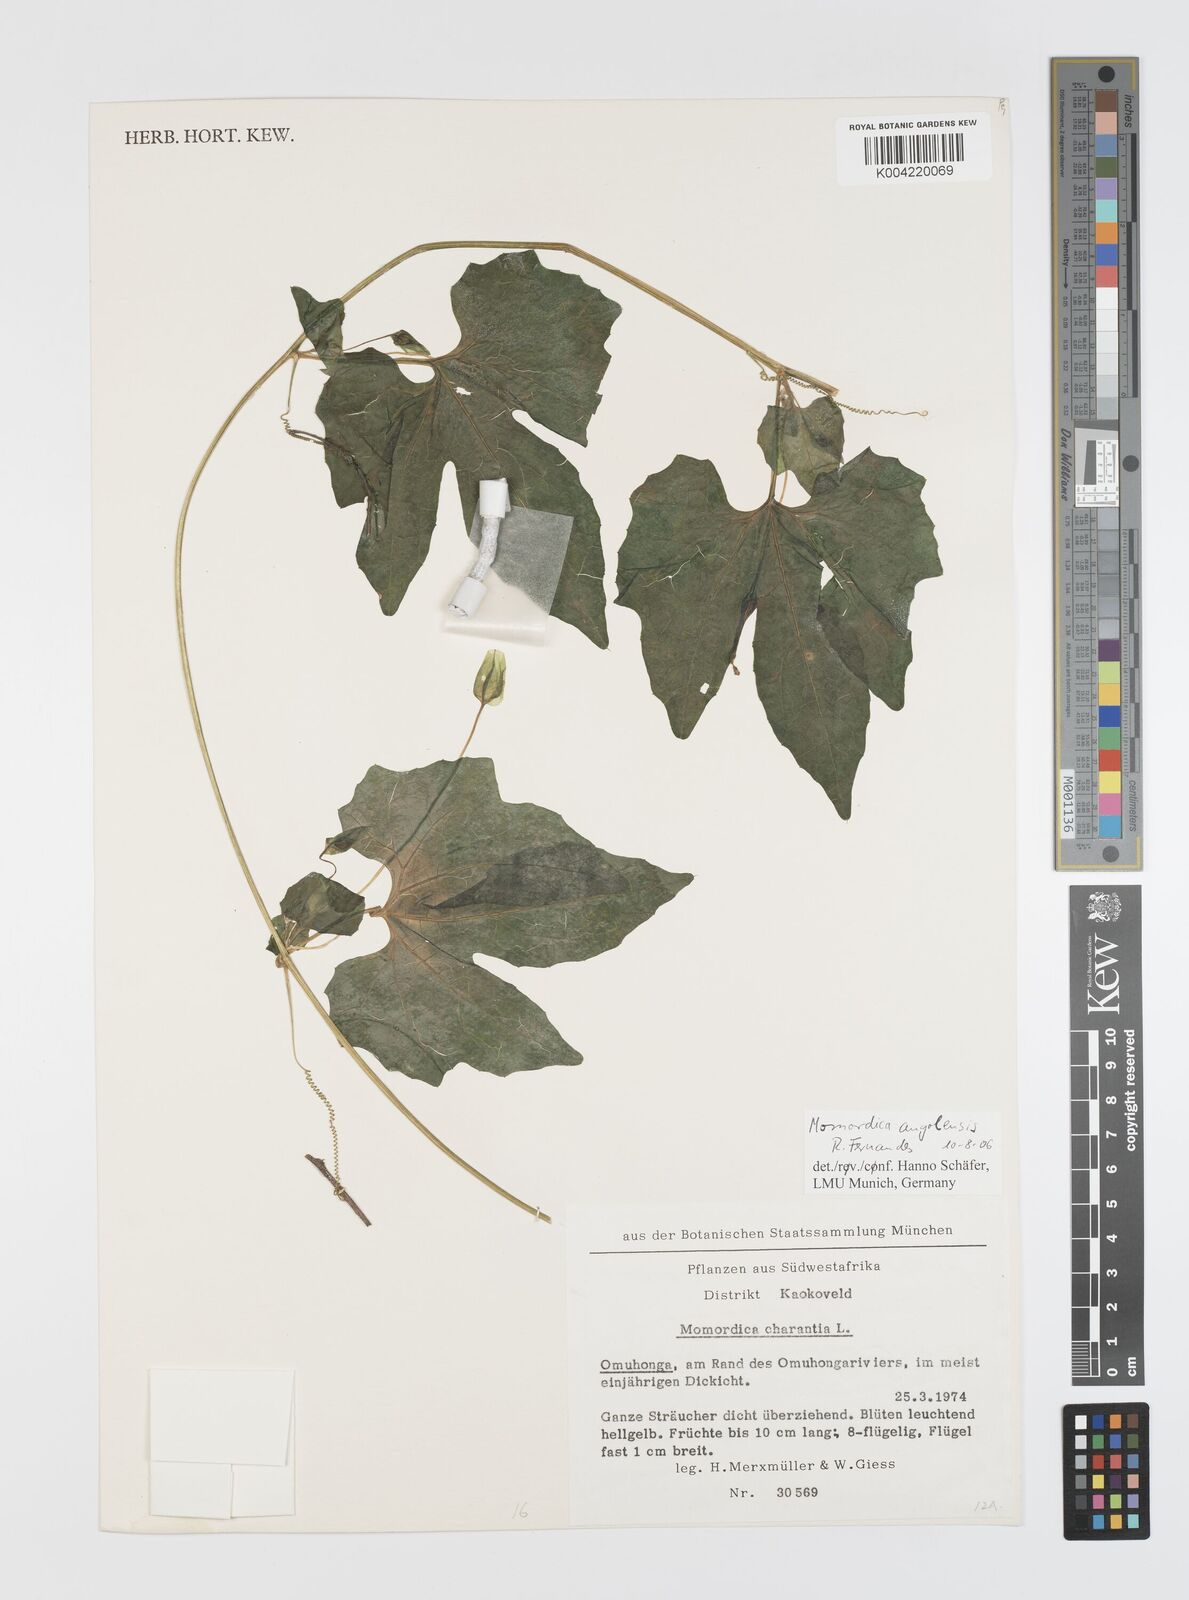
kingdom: Plantae
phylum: Tracheophyta
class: Magnoliopsida
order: Cucurbitales
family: Cucurbitaceae
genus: Momordica
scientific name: Momordica angolensis
